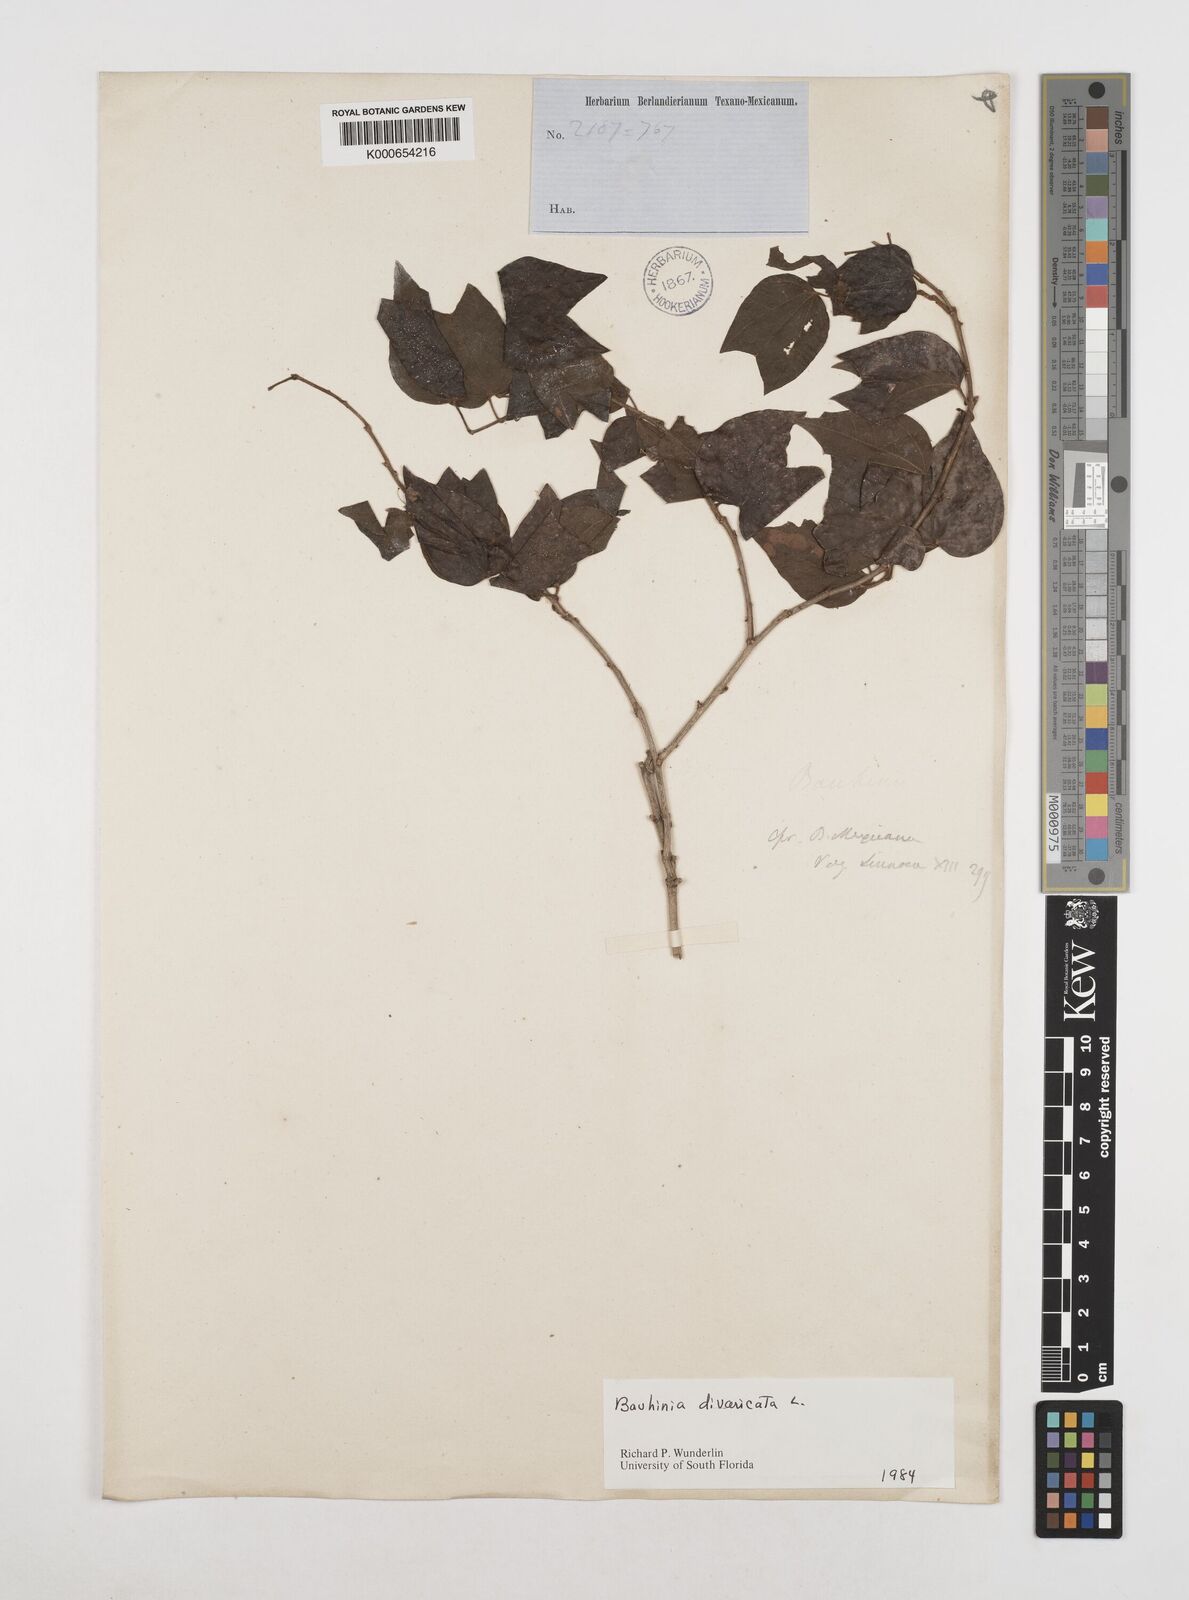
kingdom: Plantae
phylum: Tracheophyta
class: Magnoliopsida
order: Fabales
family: Fabaceae
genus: Bauhinia
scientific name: Bauhinia divaricata
